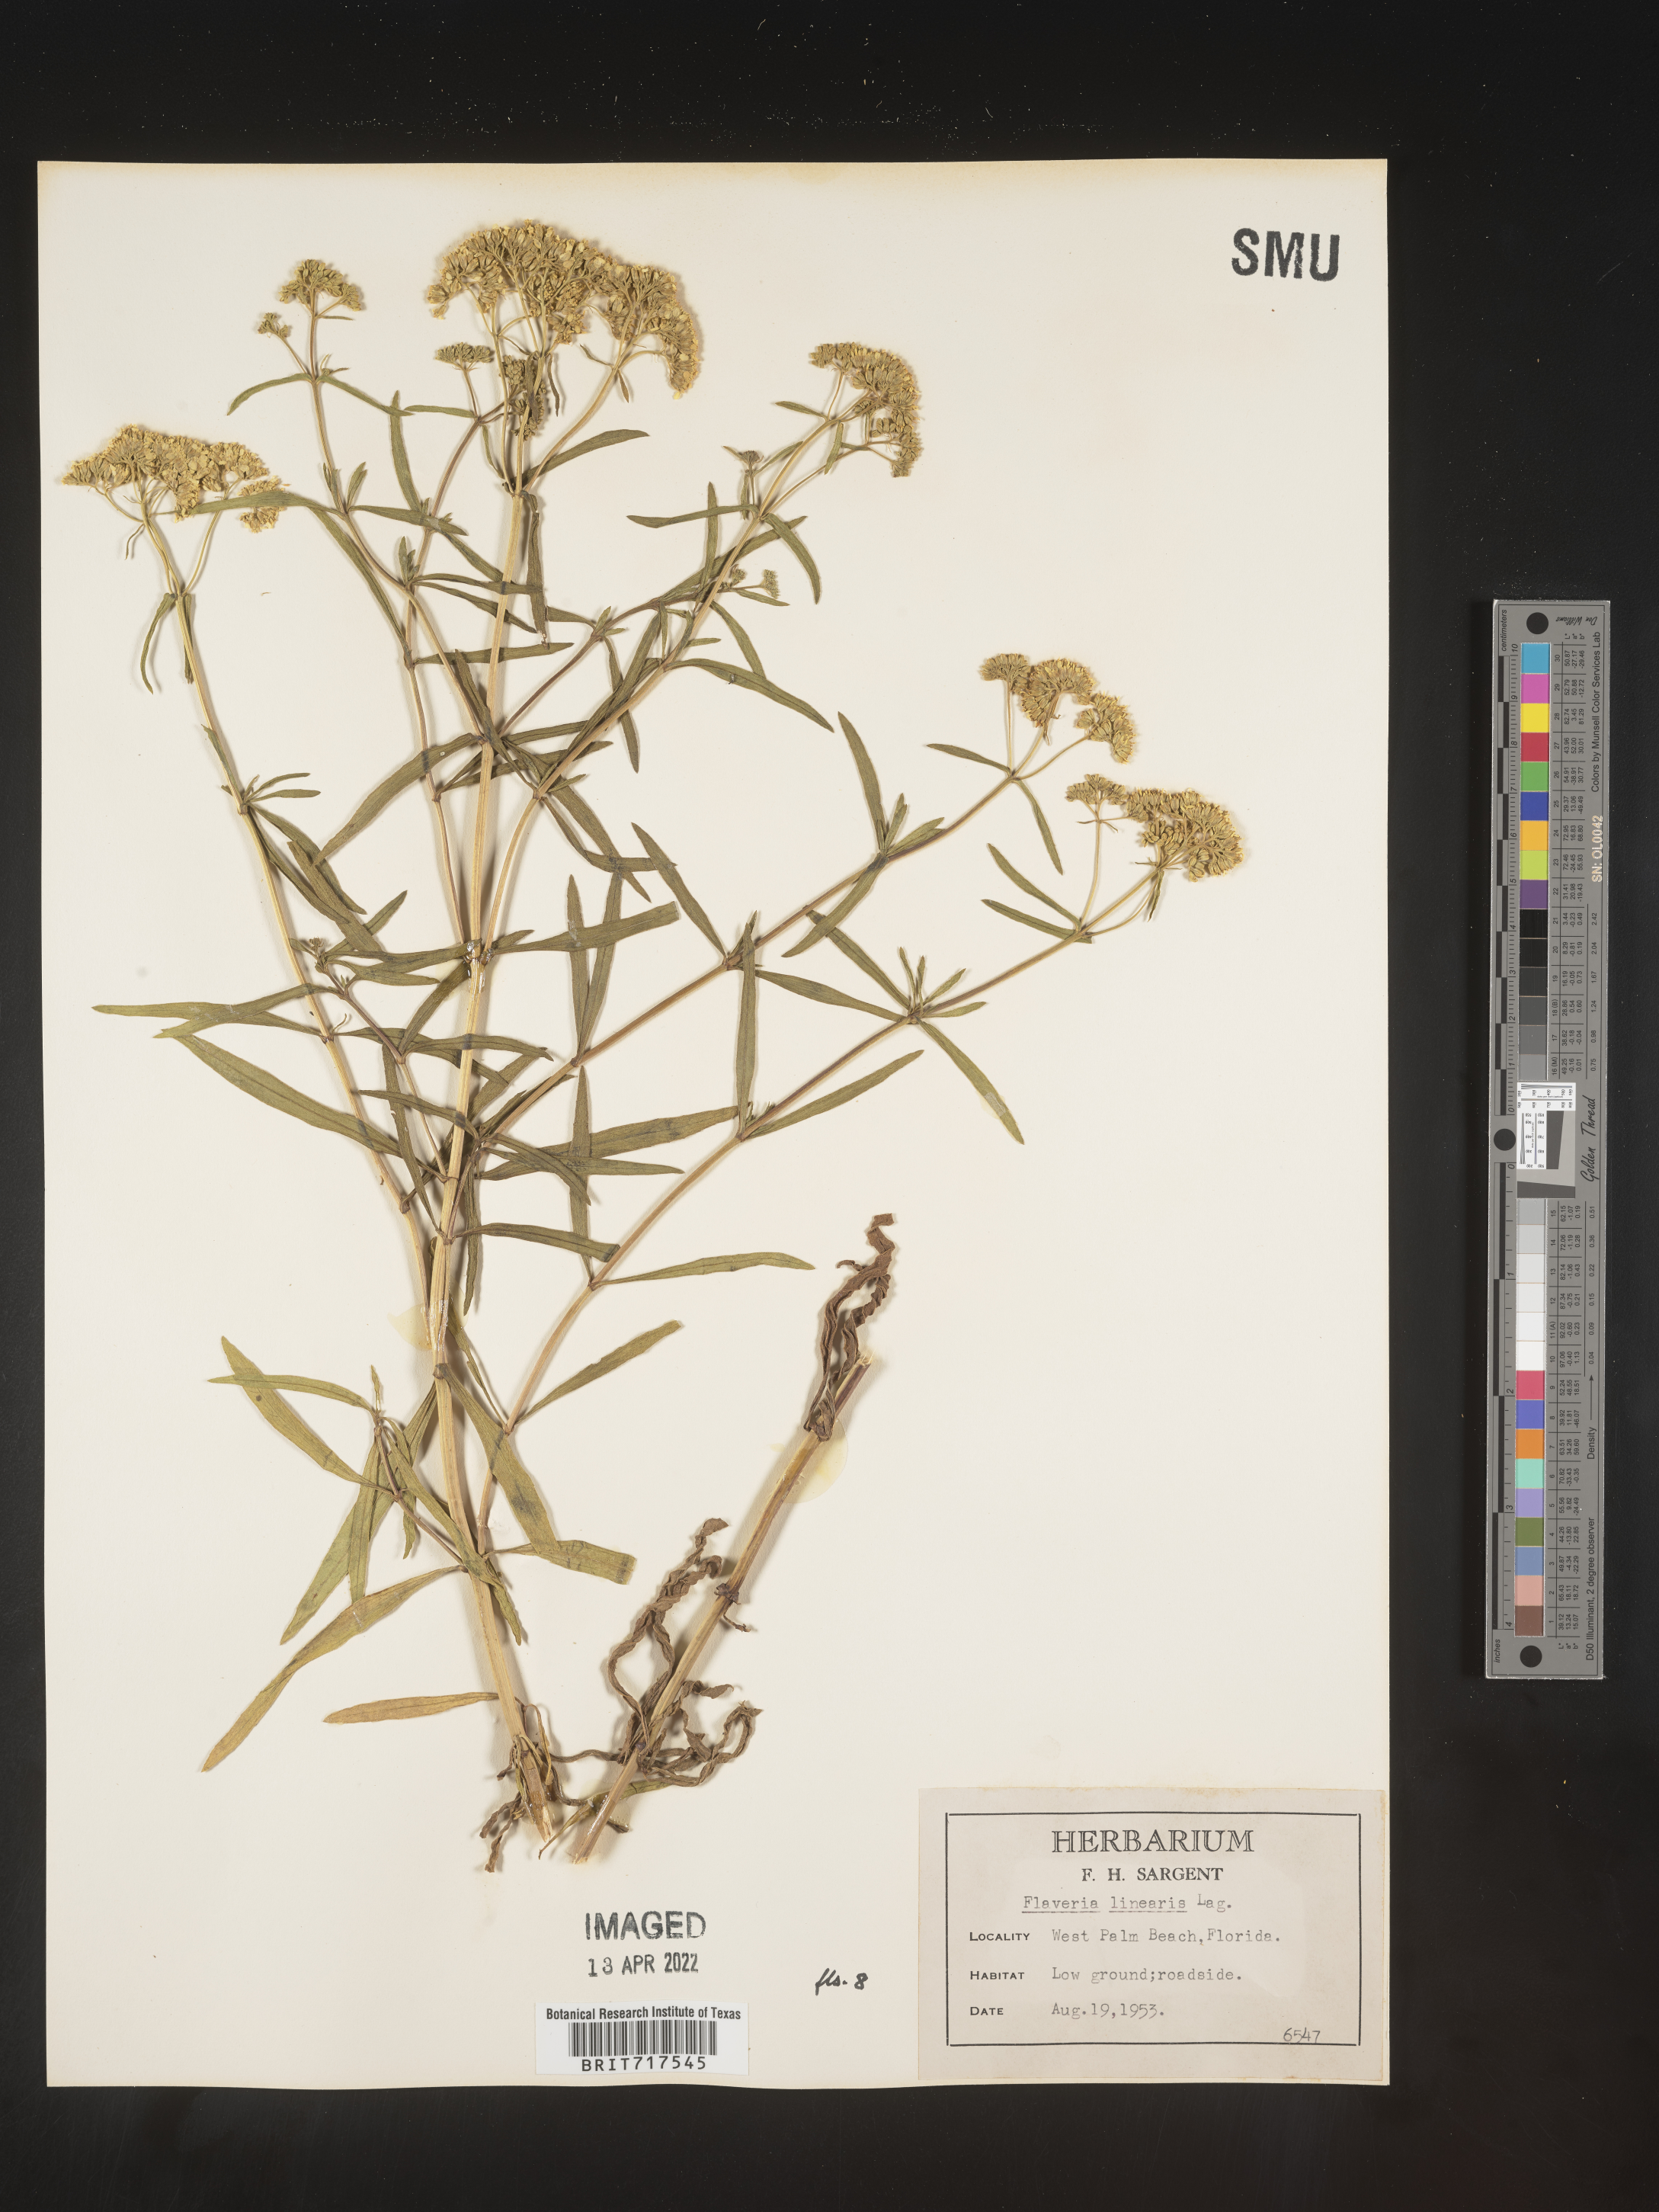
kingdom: Plantae
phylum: Tracheophyta
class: Magnoliopsida
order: Asterales
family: Asteraceae
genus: Flaveria
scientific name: Flaveria linearis
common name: Yellowtop
